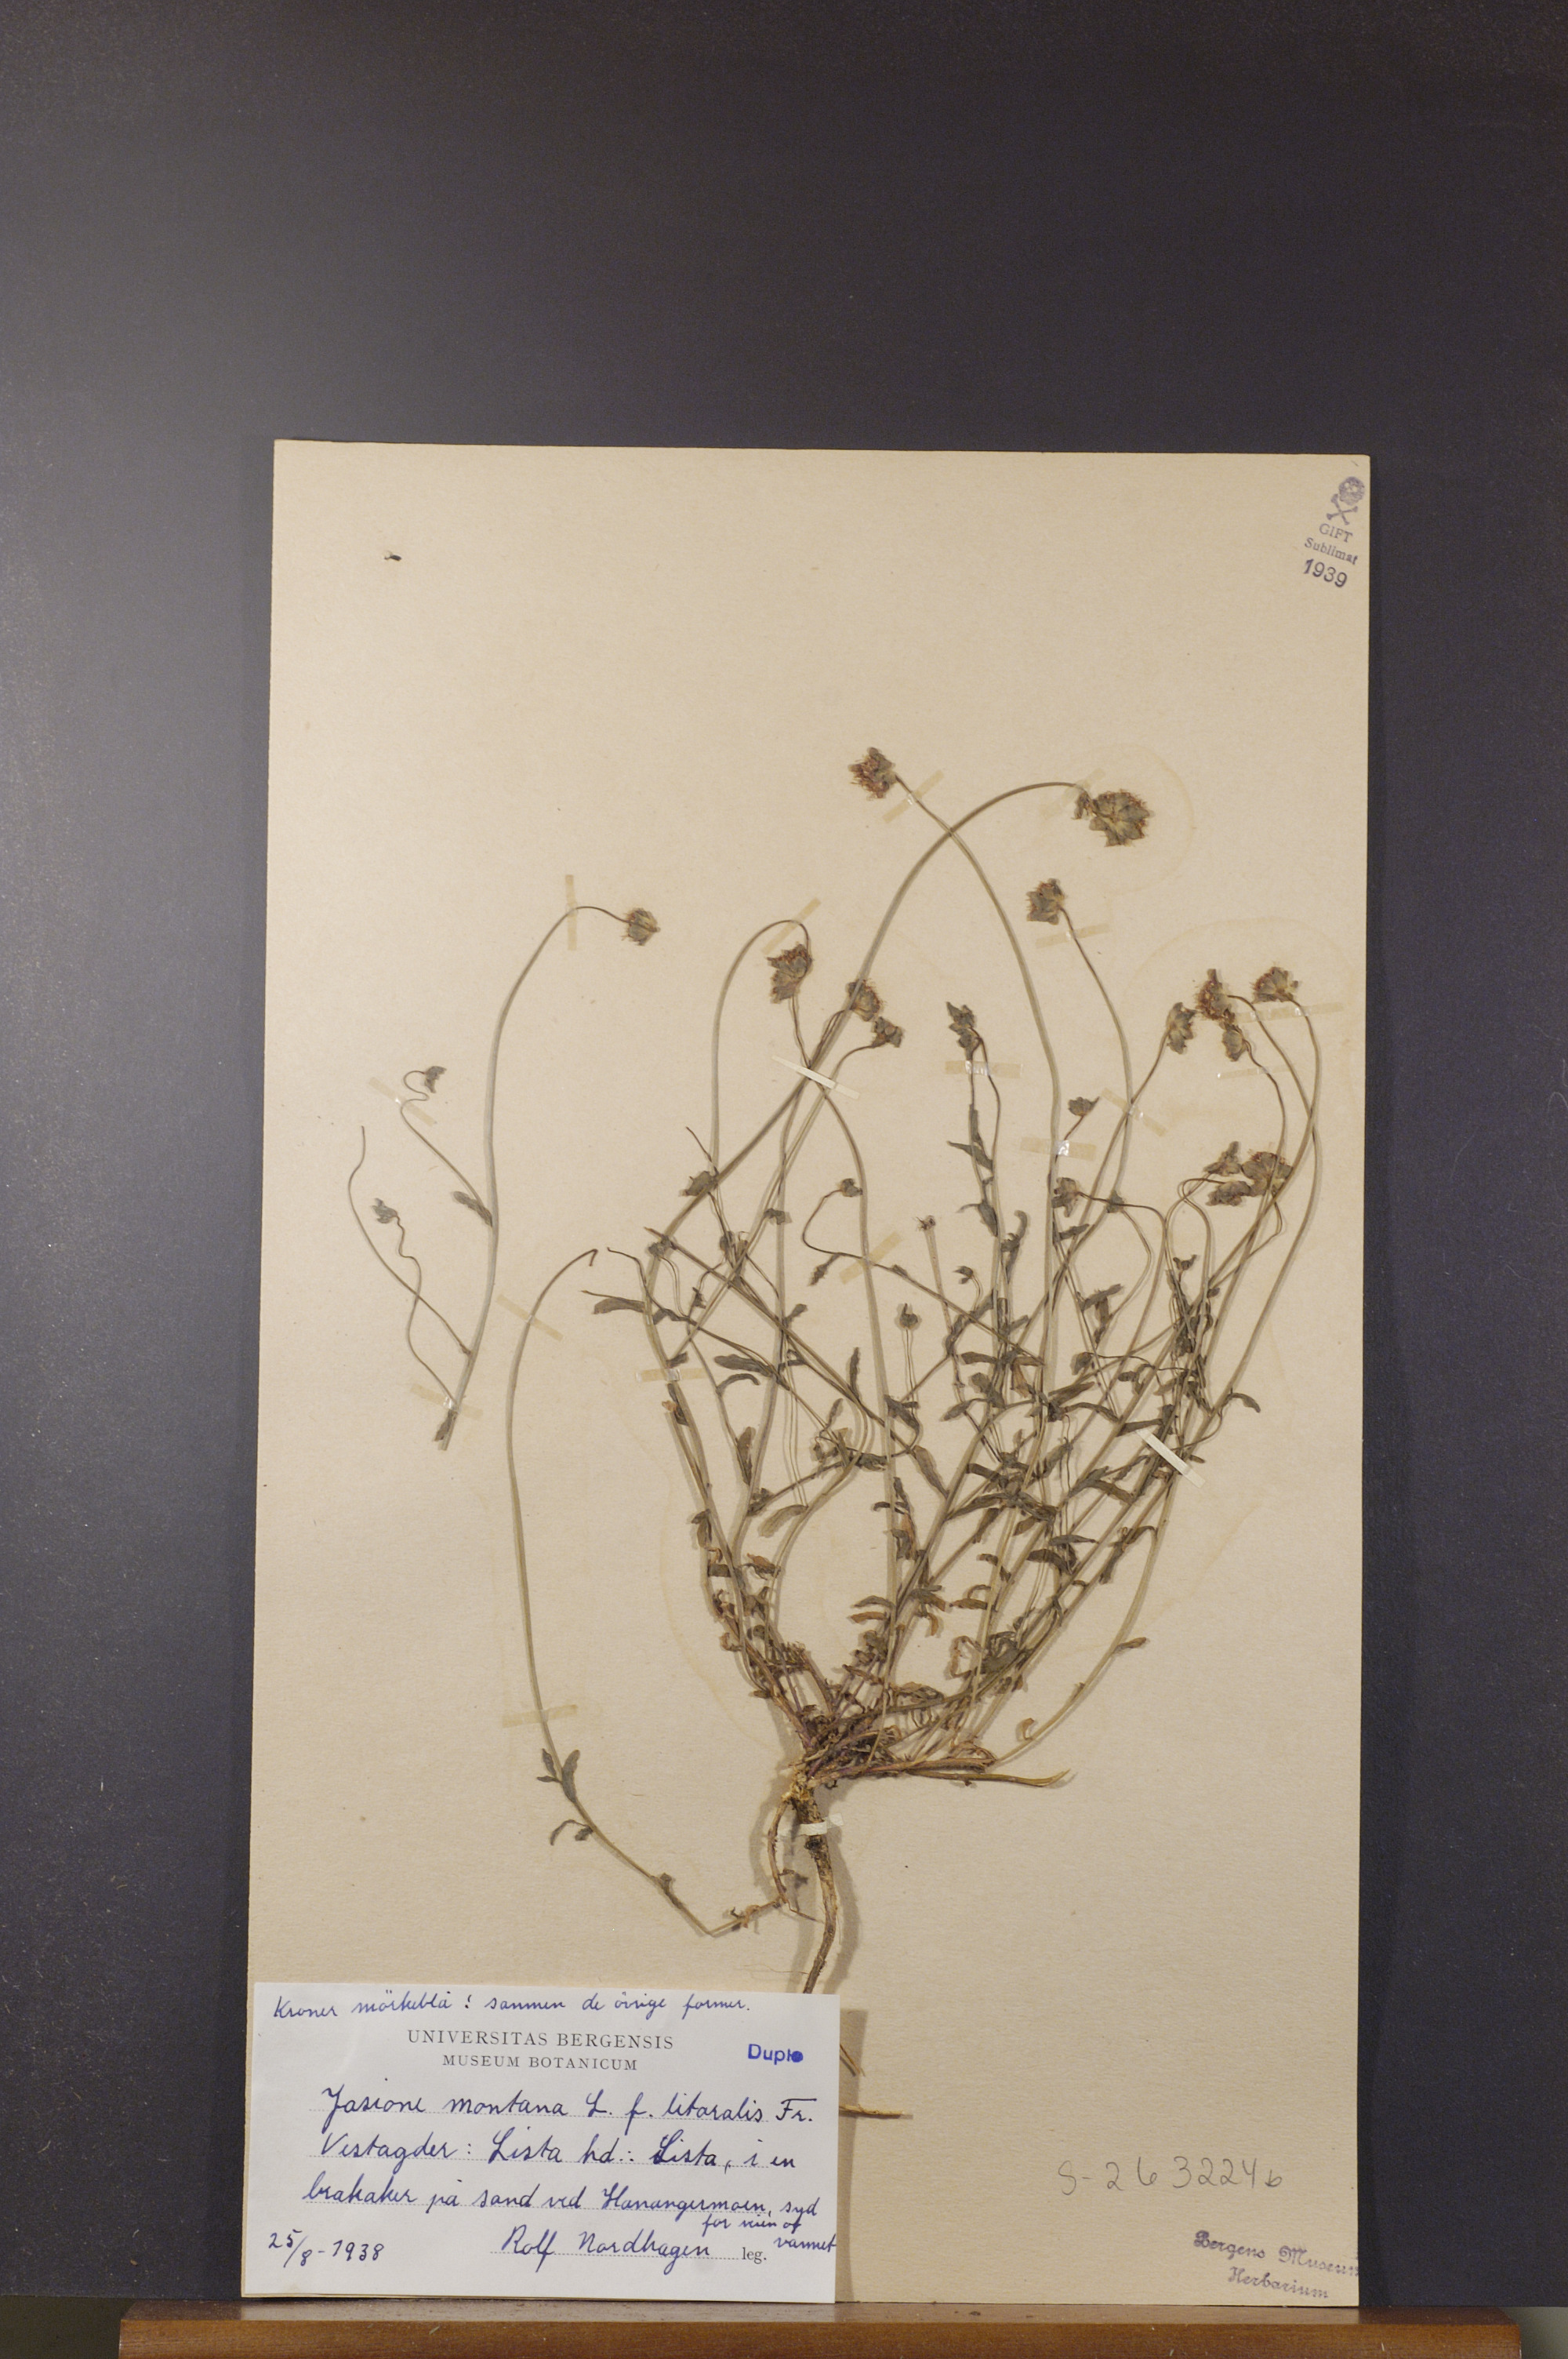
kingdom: Plantae
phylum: Tracheophyta
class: Magnoliopsida
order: Asterales
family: Campanulaceae
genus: Jasione
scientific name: Jasione montana
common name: Sheep's-bit
